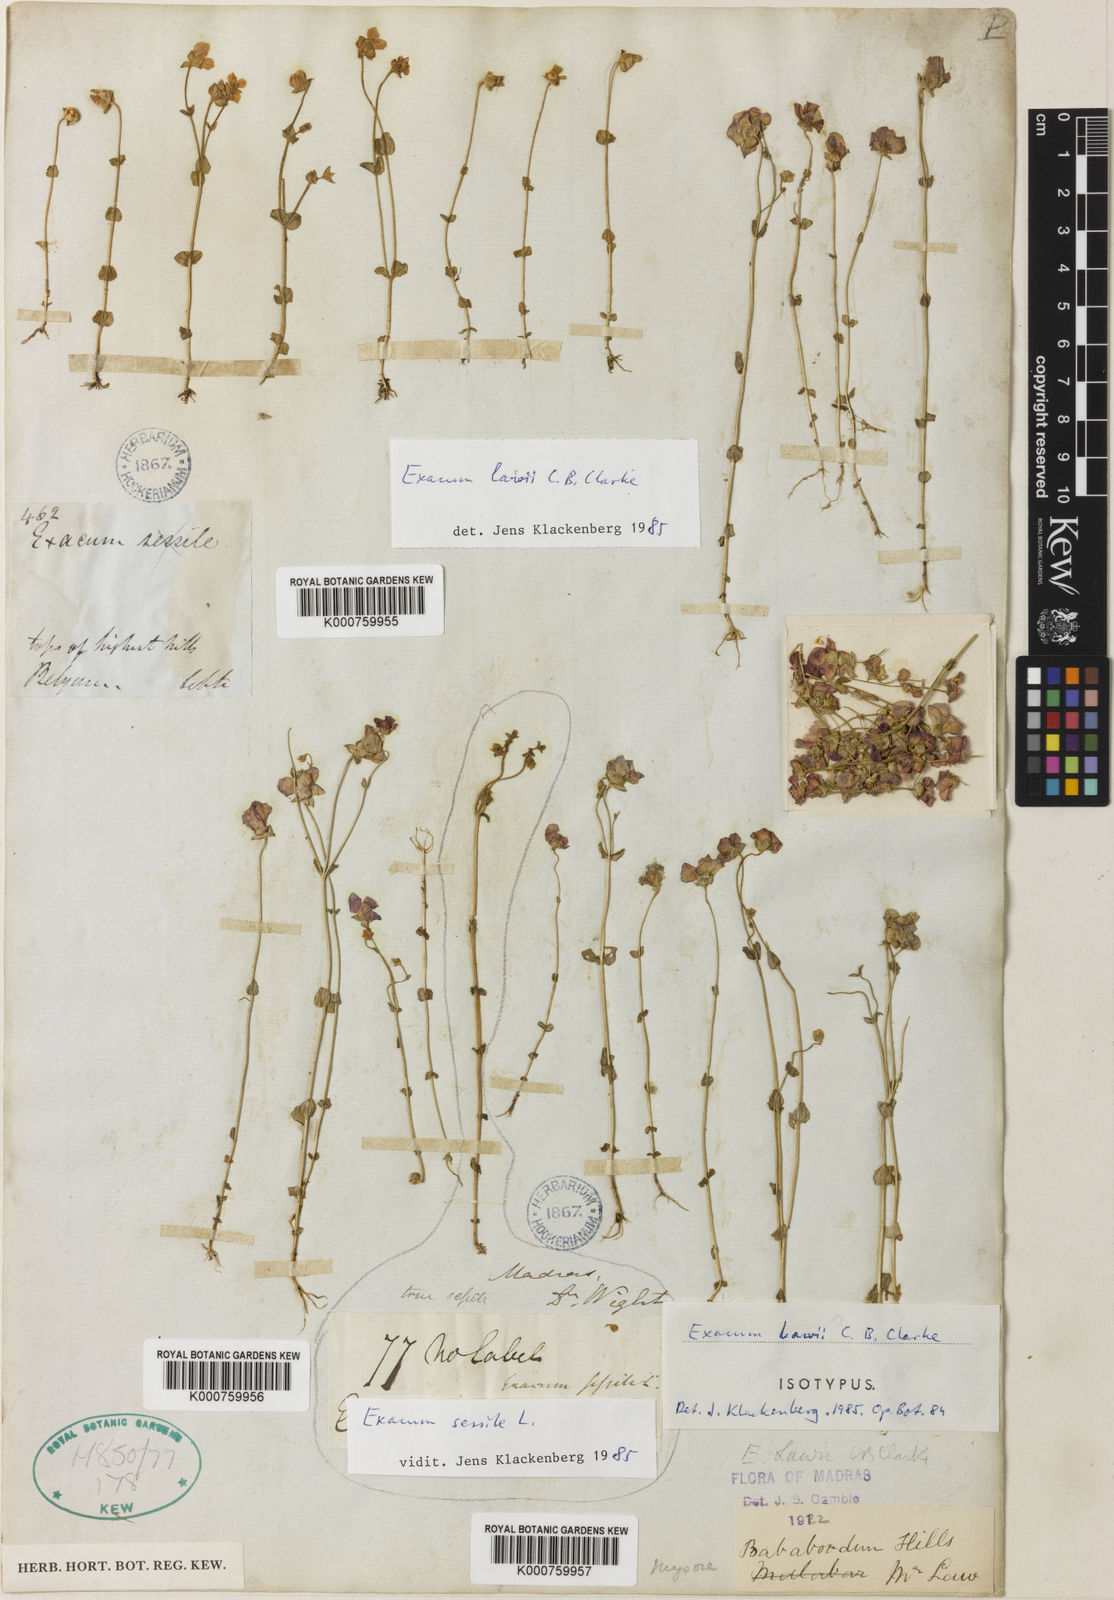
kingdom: Plantae
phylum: Tracheophyta
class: Magnoliopsida
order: Gentianales
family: Gentianaceae
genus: Exacum
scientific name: Exacum lawii
